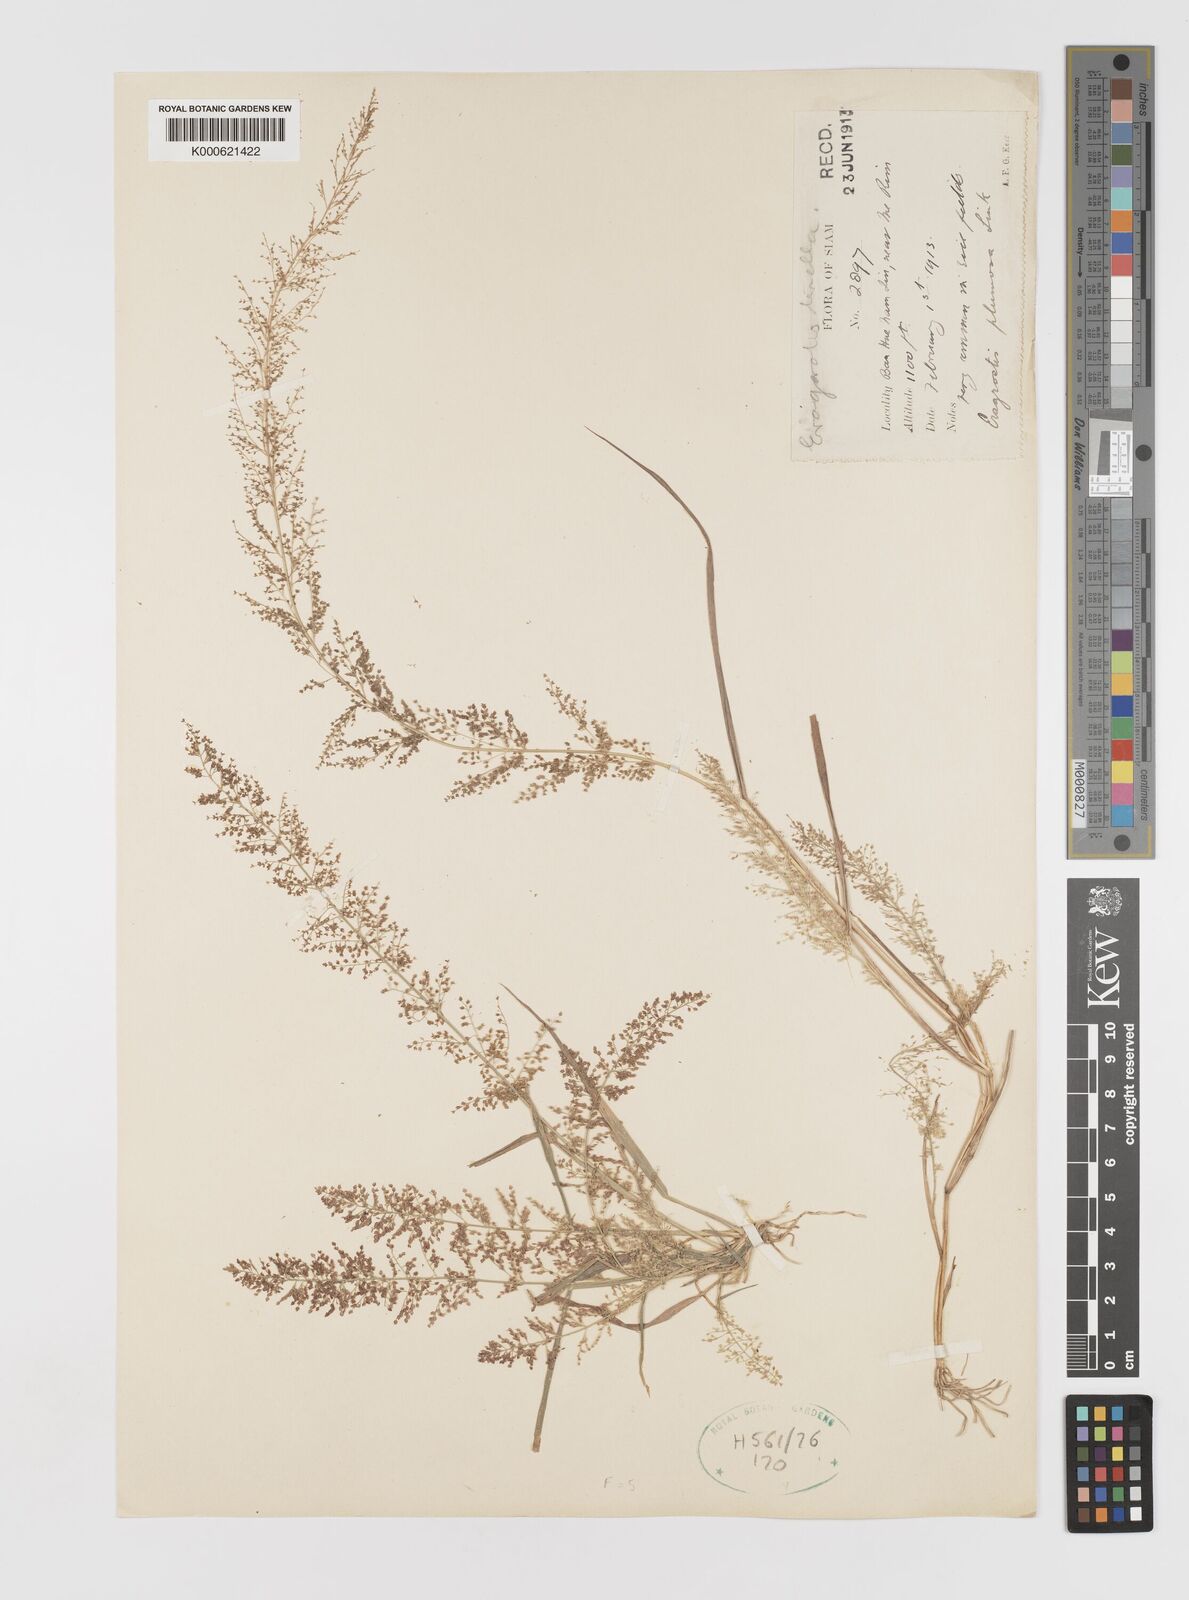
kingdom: Plantae
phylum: Tracheophyta
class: Liliopsida
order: Poales
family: Poaceae
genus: Eragrostis
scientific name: Eragrostis japonica
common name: Pond lovegrass
